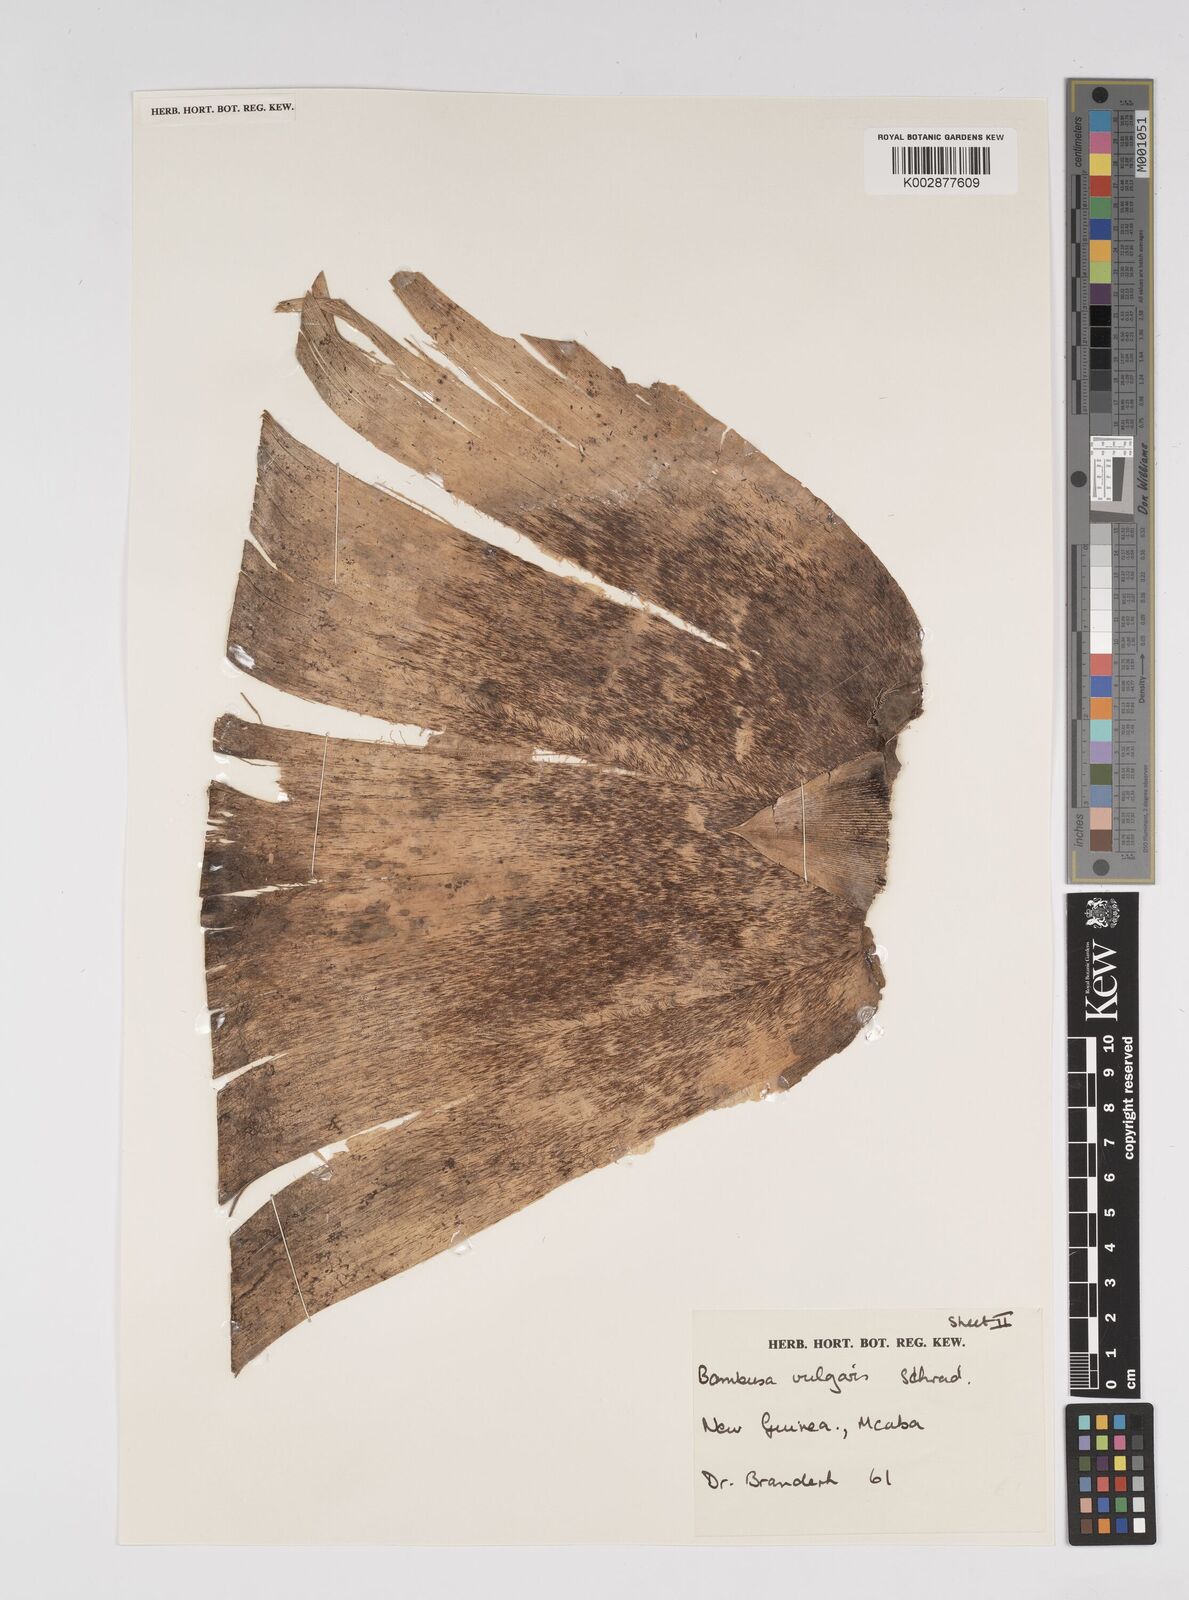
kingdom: Plantae
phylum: Tracheophyta
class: Liliopsida
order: Poales
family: Poaceae
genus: Bambusa
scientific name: Bambusa balcooa
